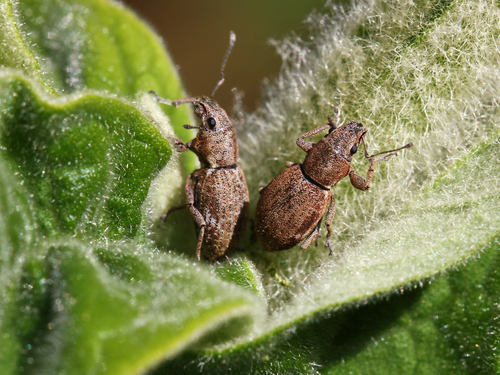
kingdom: Animalia
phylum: Arthropoda
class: Insecta
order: Coleoptera
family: Curculionidae
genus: Naupactus
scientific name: Naupactus cervinus
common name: Fuller rose beetle
